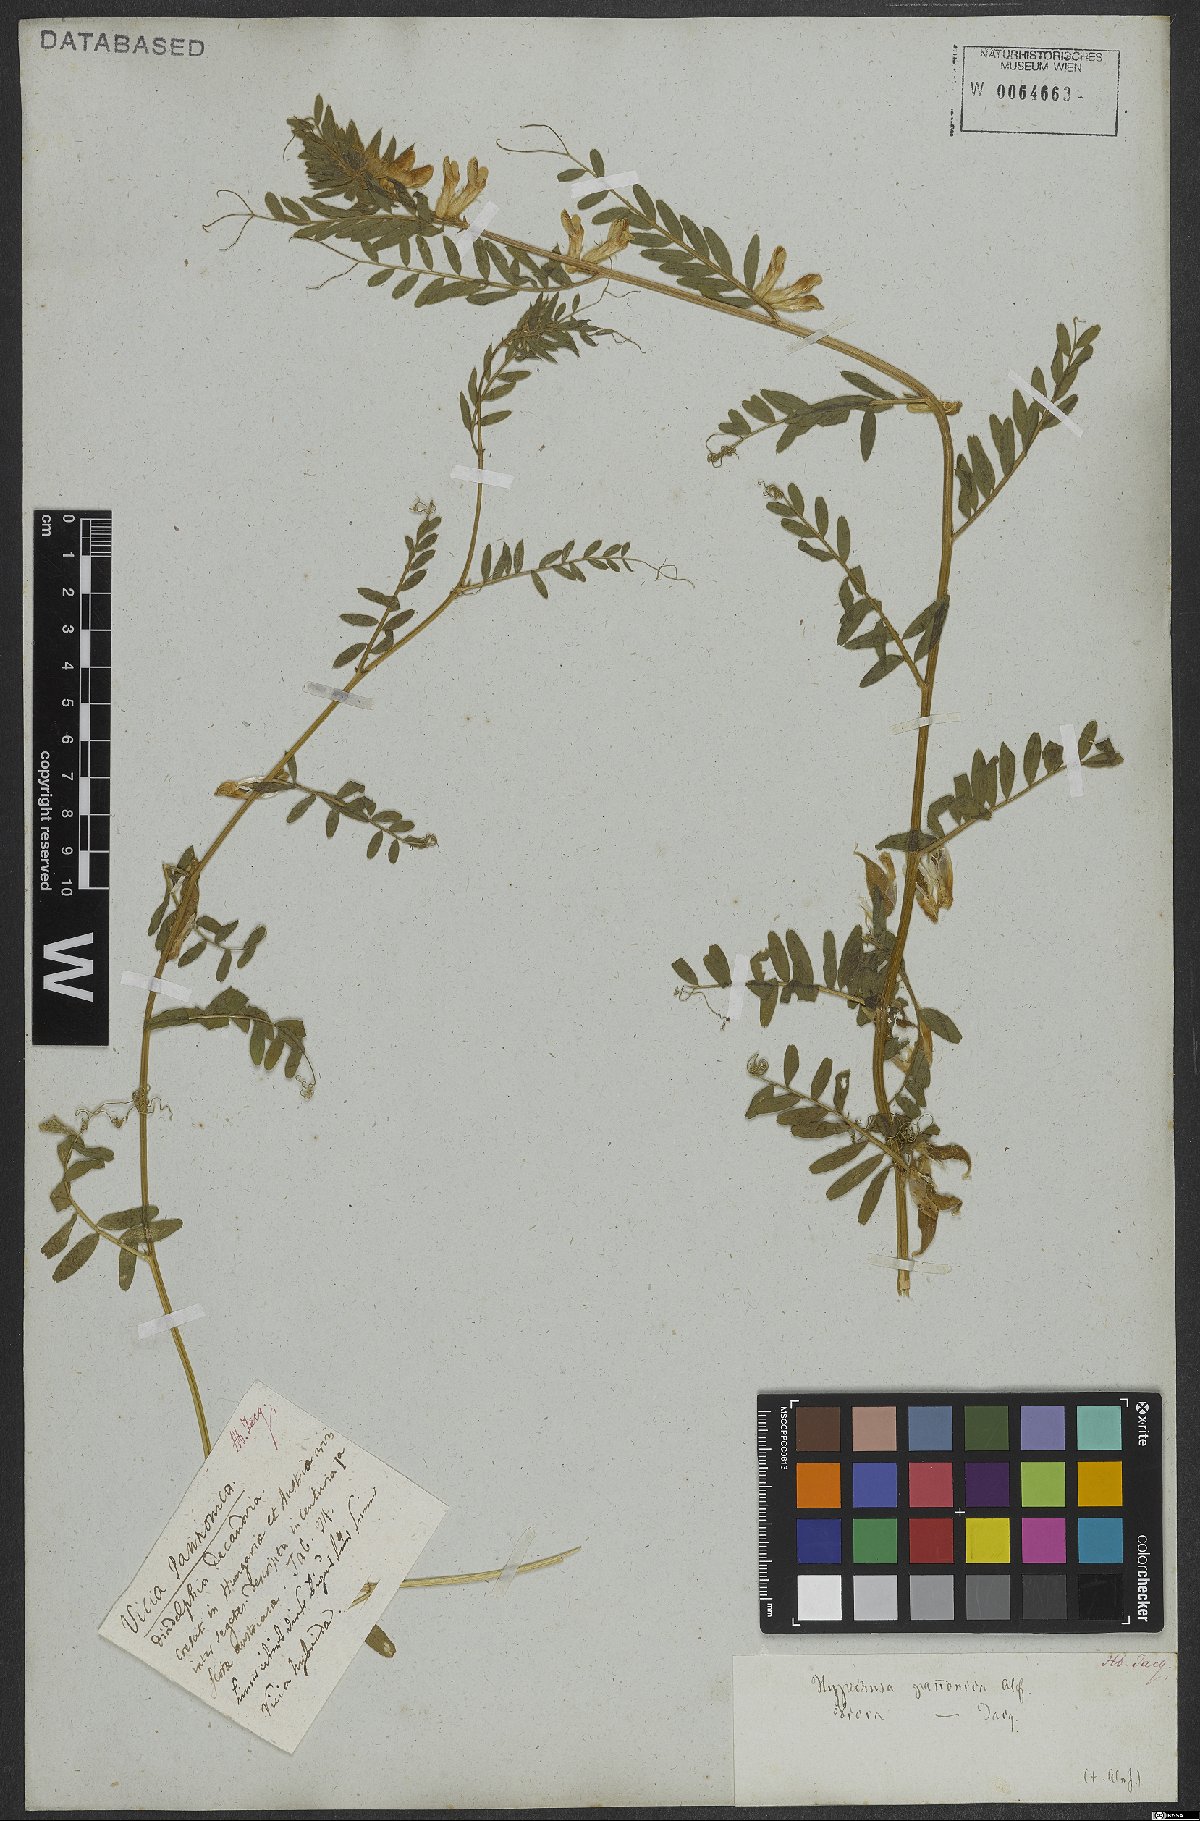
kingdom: Plantae
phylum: Tracheophyta
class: Magnoliopsida
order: Fabales
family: Fabaceae
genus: Vicia
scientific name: Vicia pannonica
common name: Hungarian vetch
